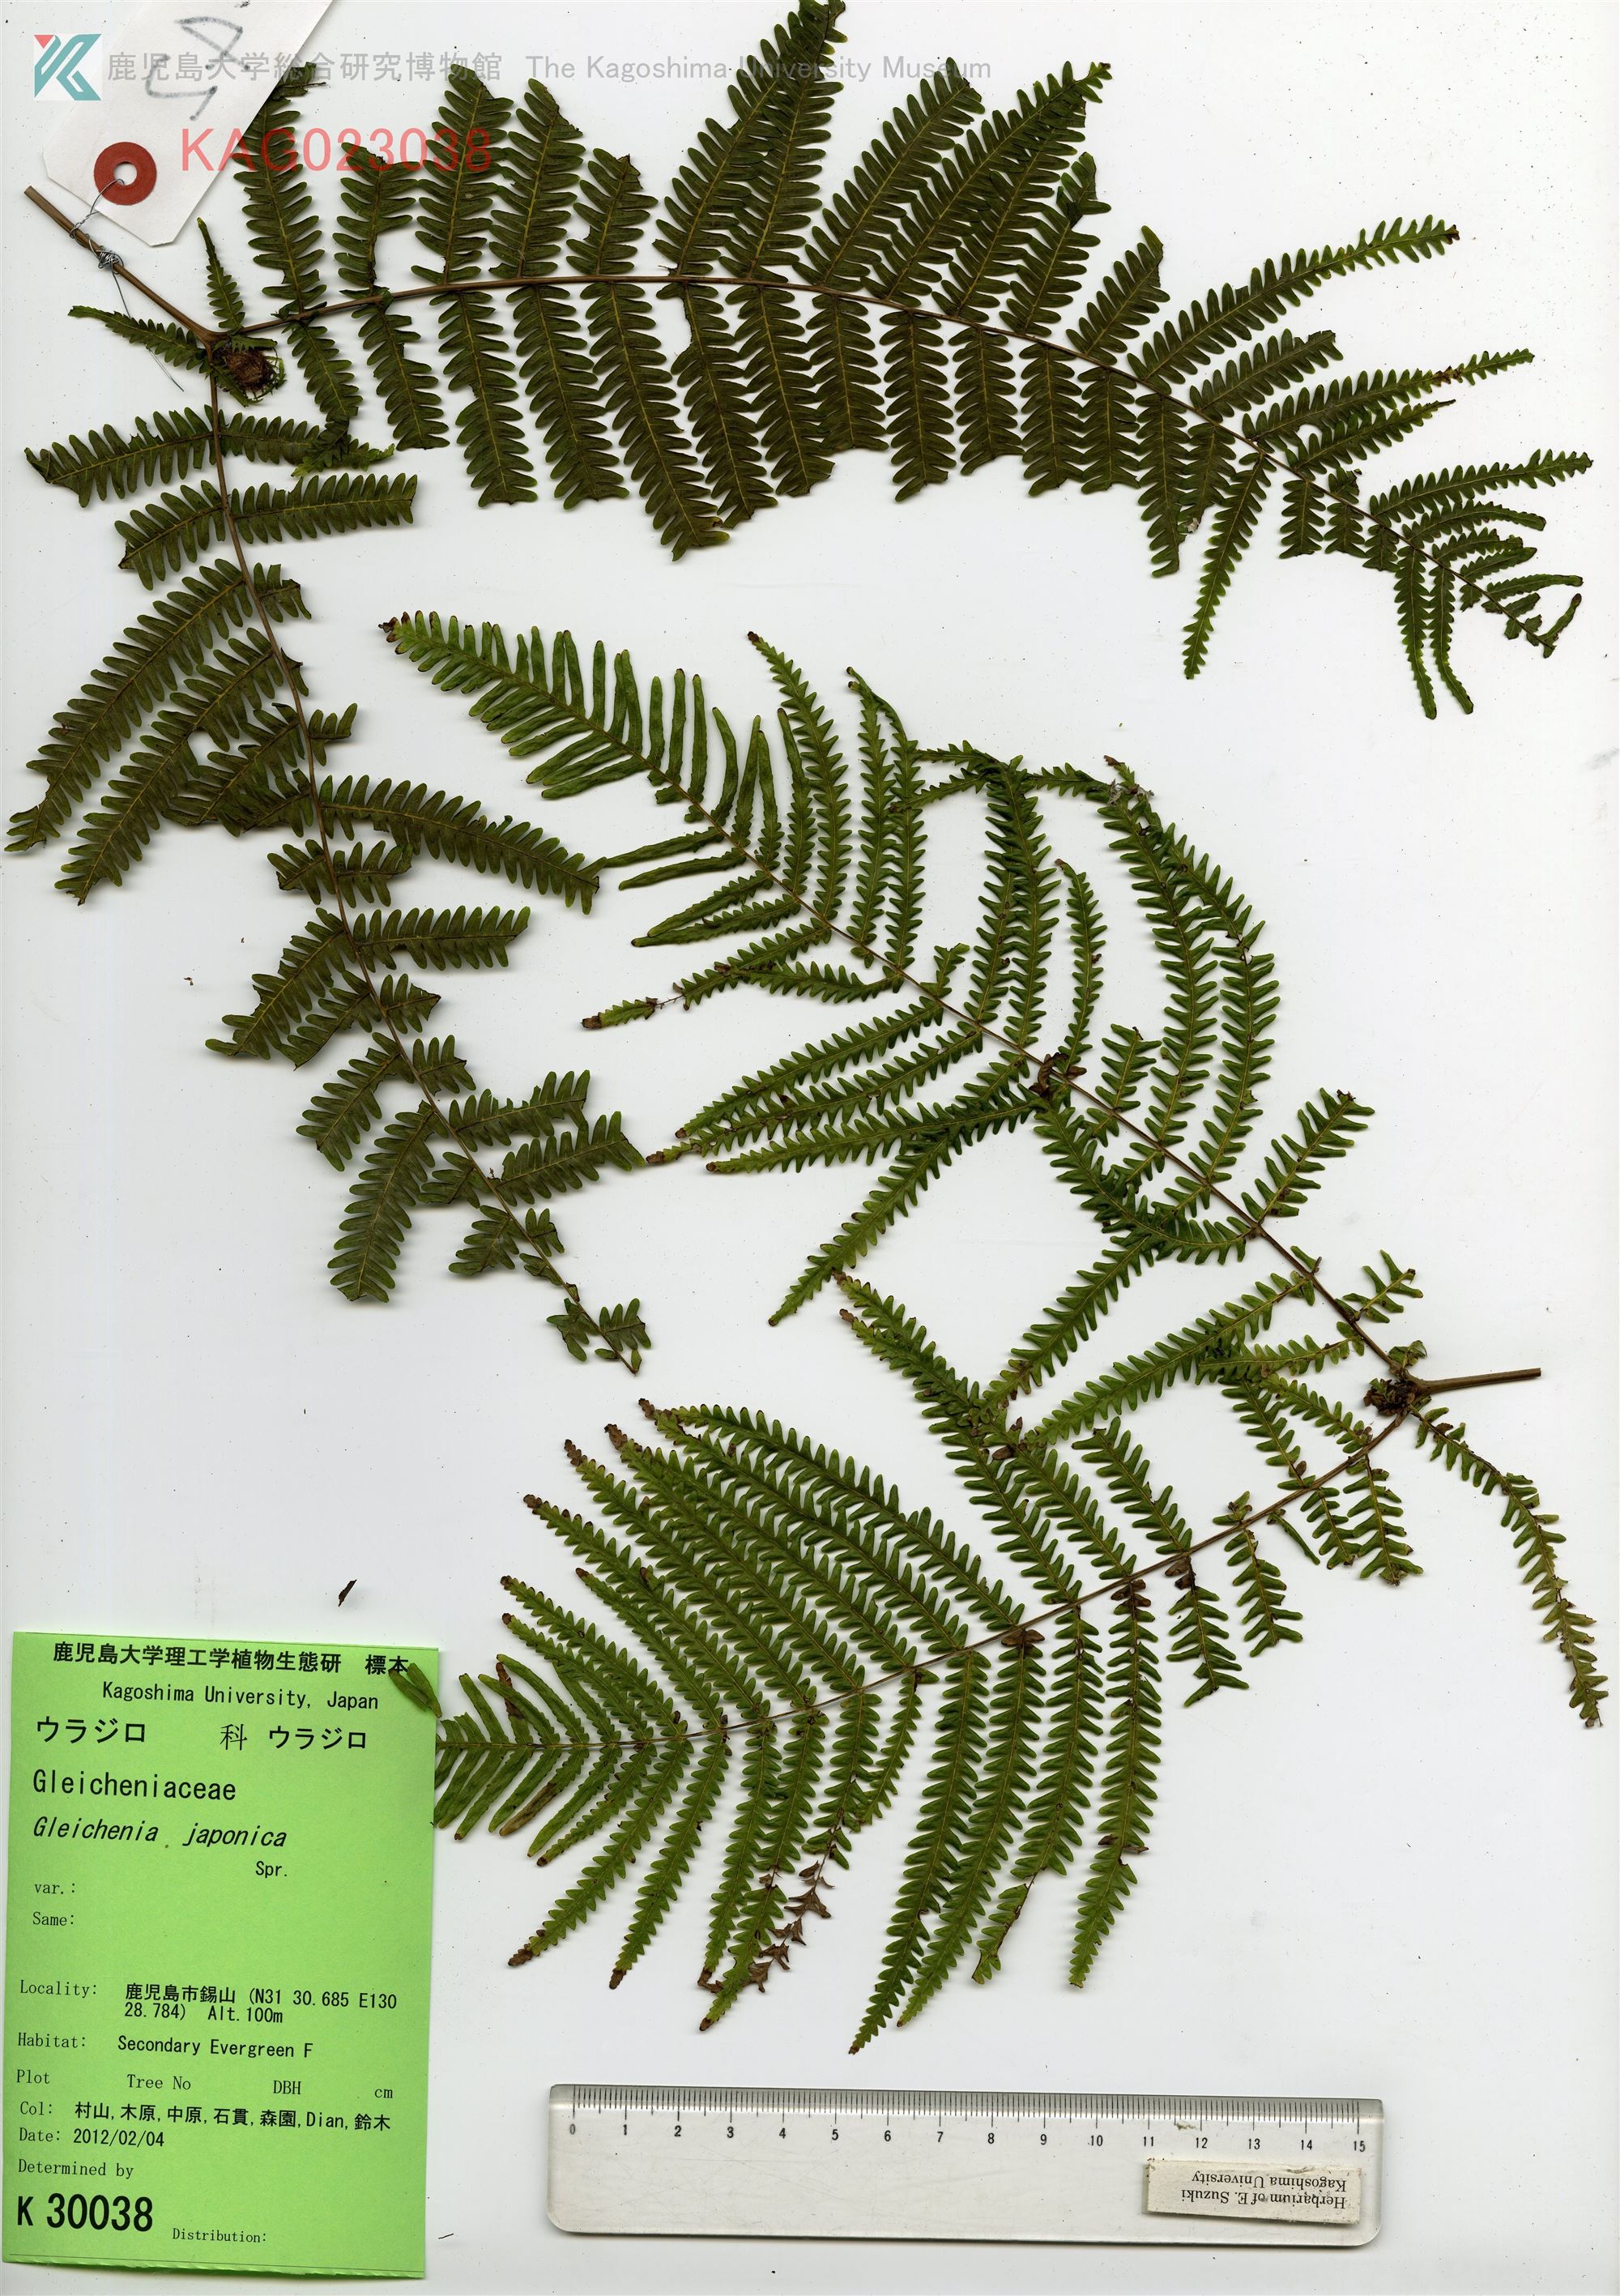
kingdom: Plantae
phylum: Tracheophyta
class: Polypodiopsida
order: Gleicheniales
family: Gleicheniaceae
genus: Diplopterygium
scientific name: Diplopterygium glaucum
